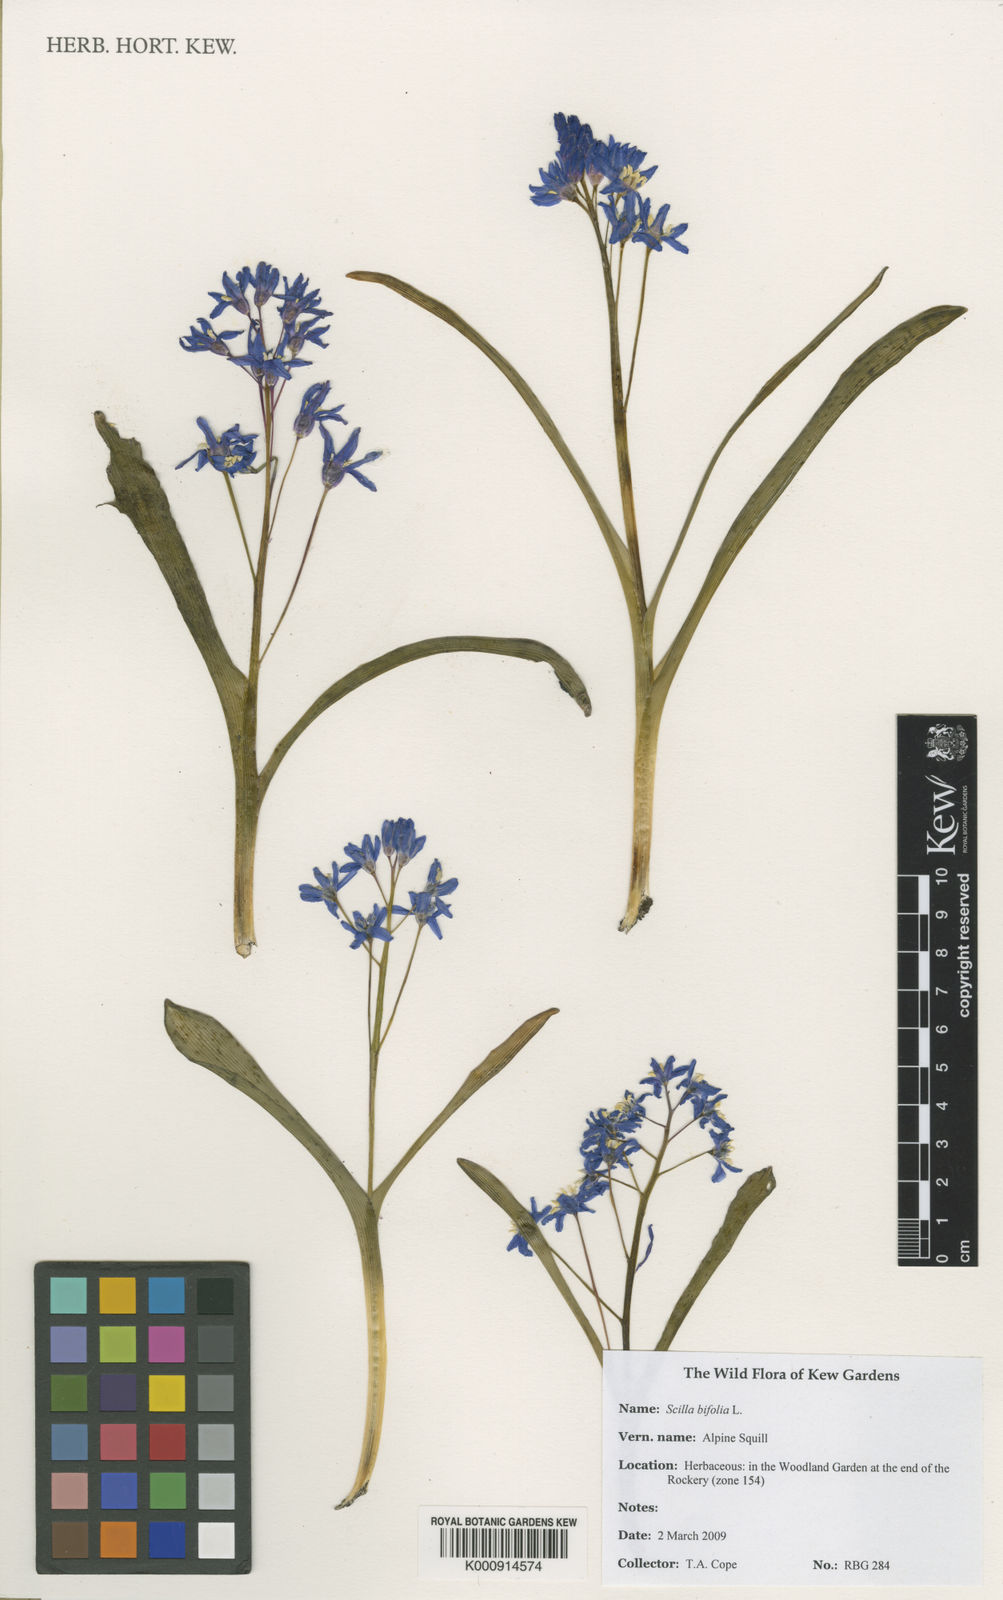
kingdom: Plantae
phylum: Tracheophyta
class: Liliopsida
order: Asparagales
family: Asparagaceae
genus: Scilla
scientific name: Scilla bifolia
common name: Alpine squill
